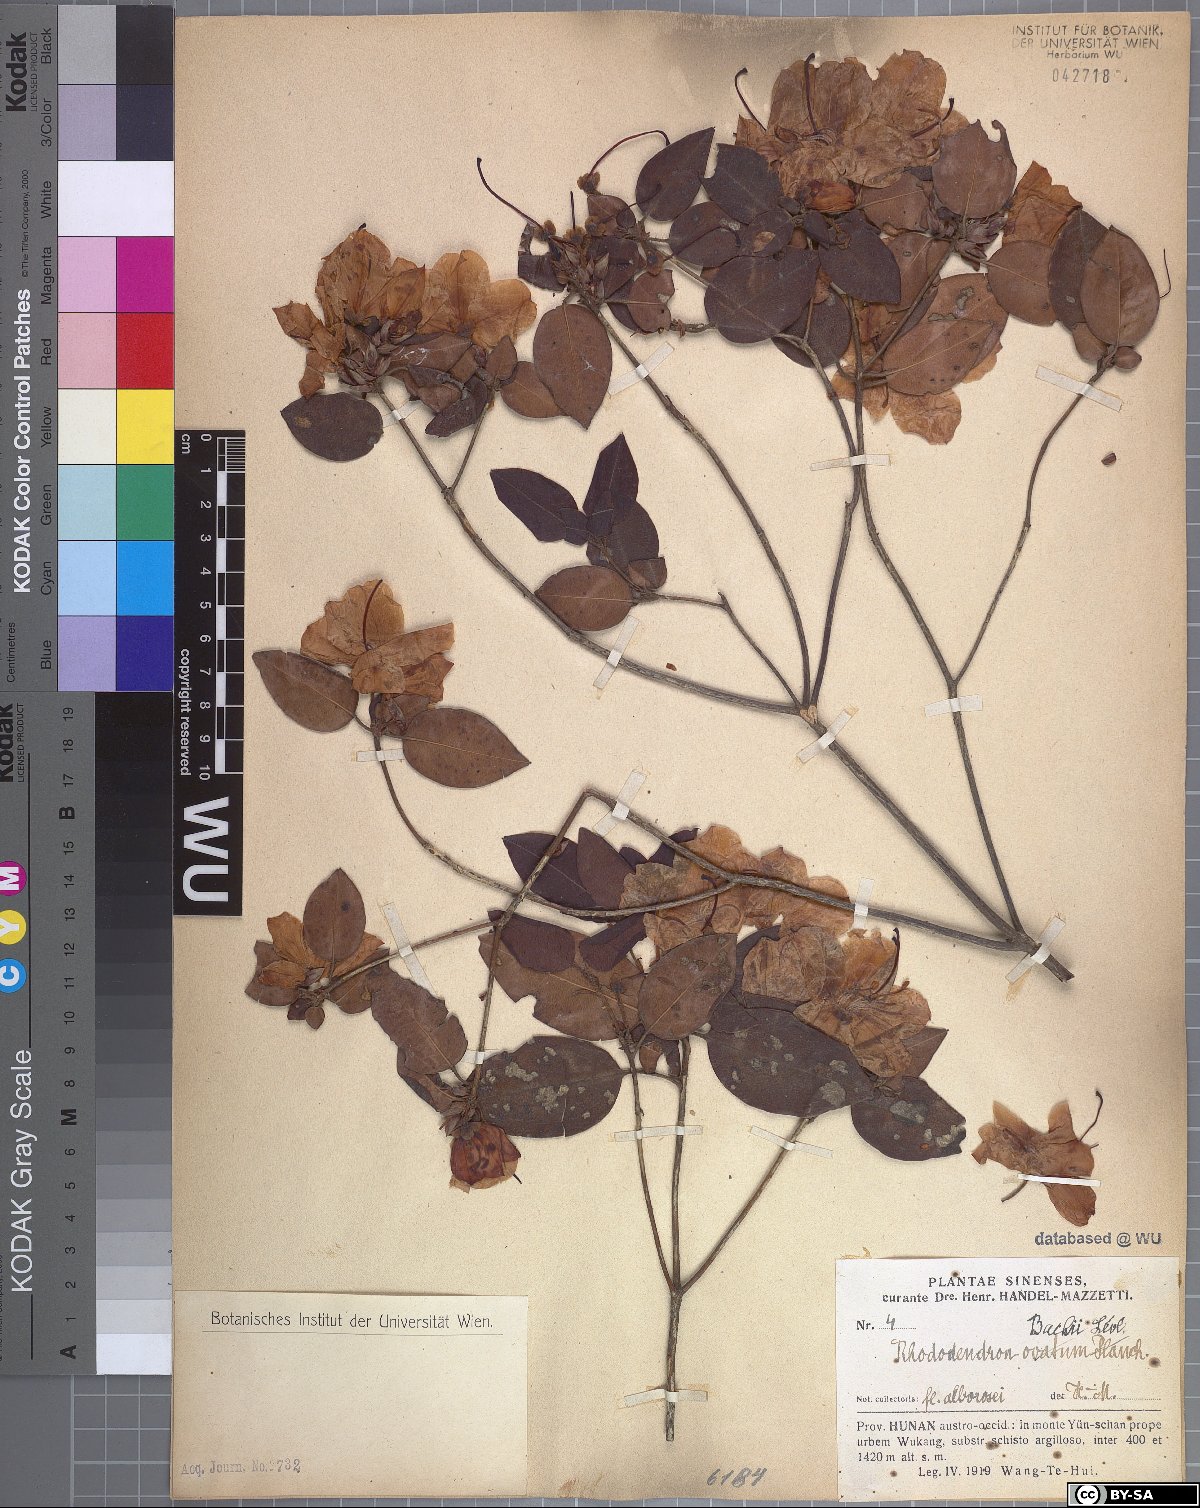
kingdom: Plantae
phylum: Tracheophyta
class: Magnoliopsida
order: Ericales
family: Ericaceae
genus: Rhododendron
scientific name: Rhododendron bachii
